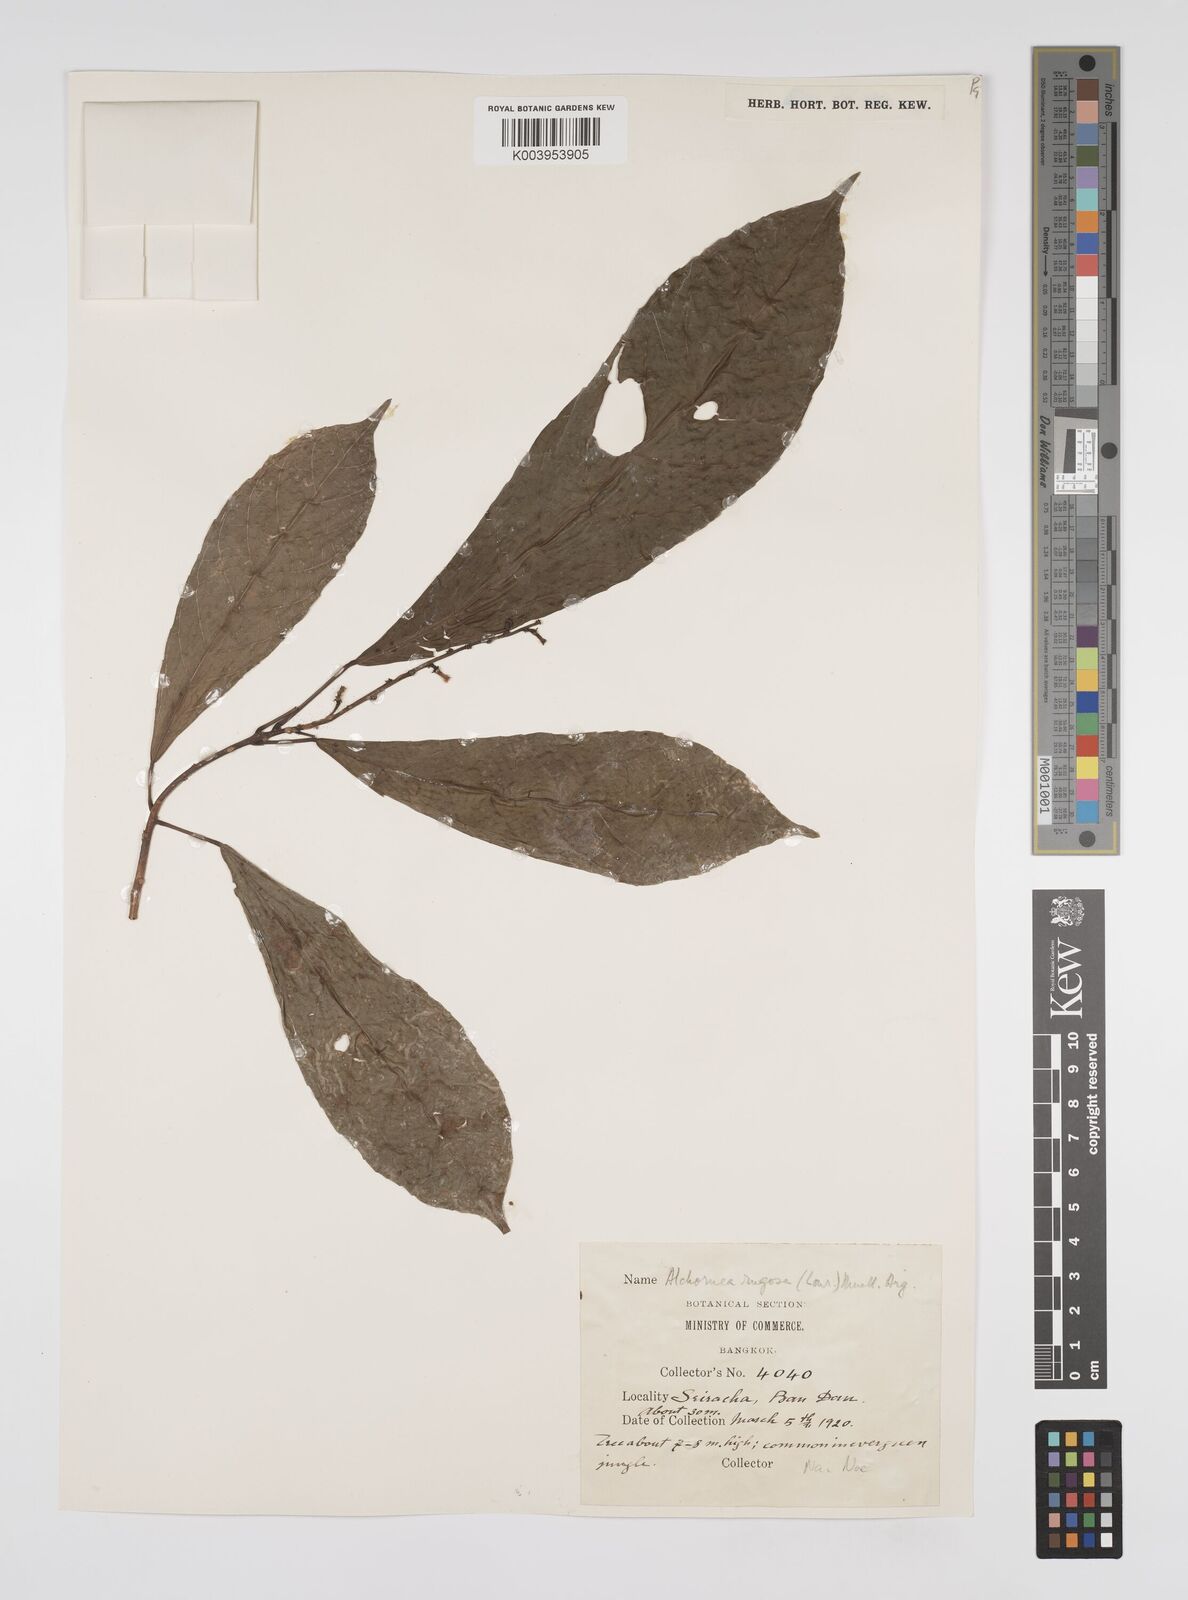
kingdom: Plantae
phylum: Tracheophyta
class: Magnoliopsida
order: Malpighiales
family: Euphorbiaceae
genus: Alchornea
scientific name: Alchornea rugosa
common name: Alchorntree
